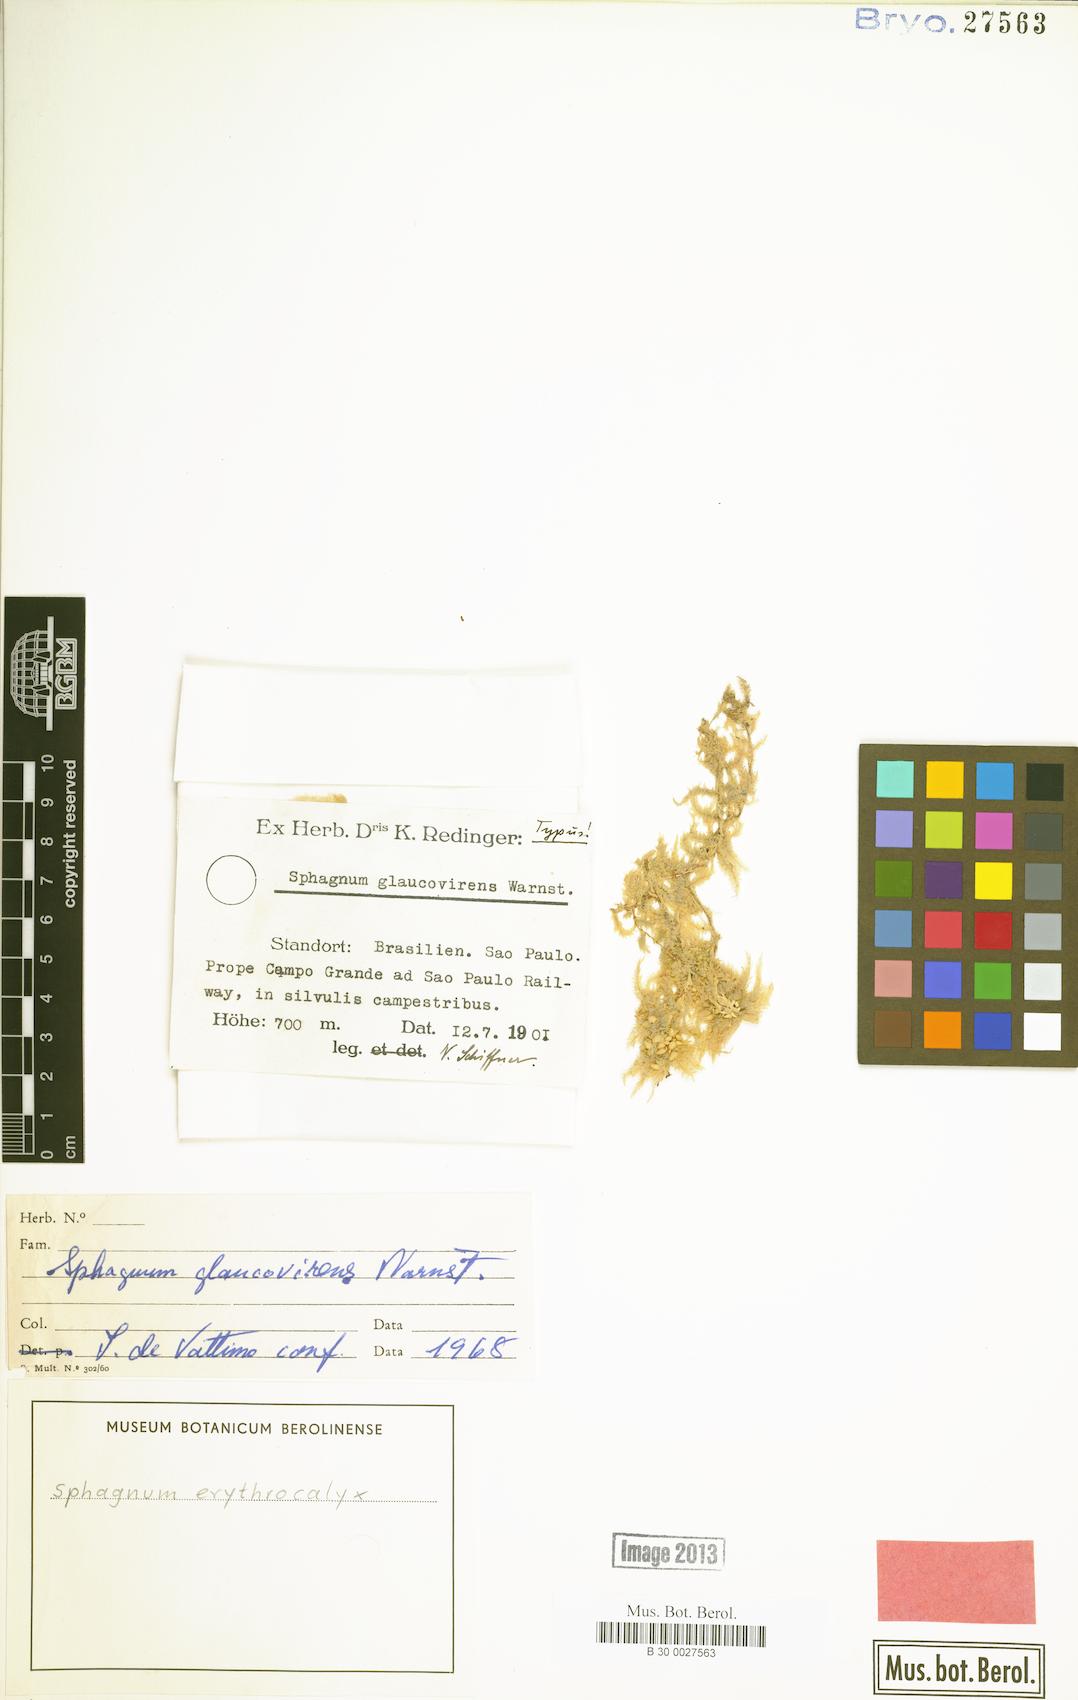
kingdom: Plantae
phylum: Bryophyta
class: Sphagnopsida
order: Sphagnales
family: Sphagnaceae
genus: Sphagnum
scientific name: Sphagnum perichaetiale
